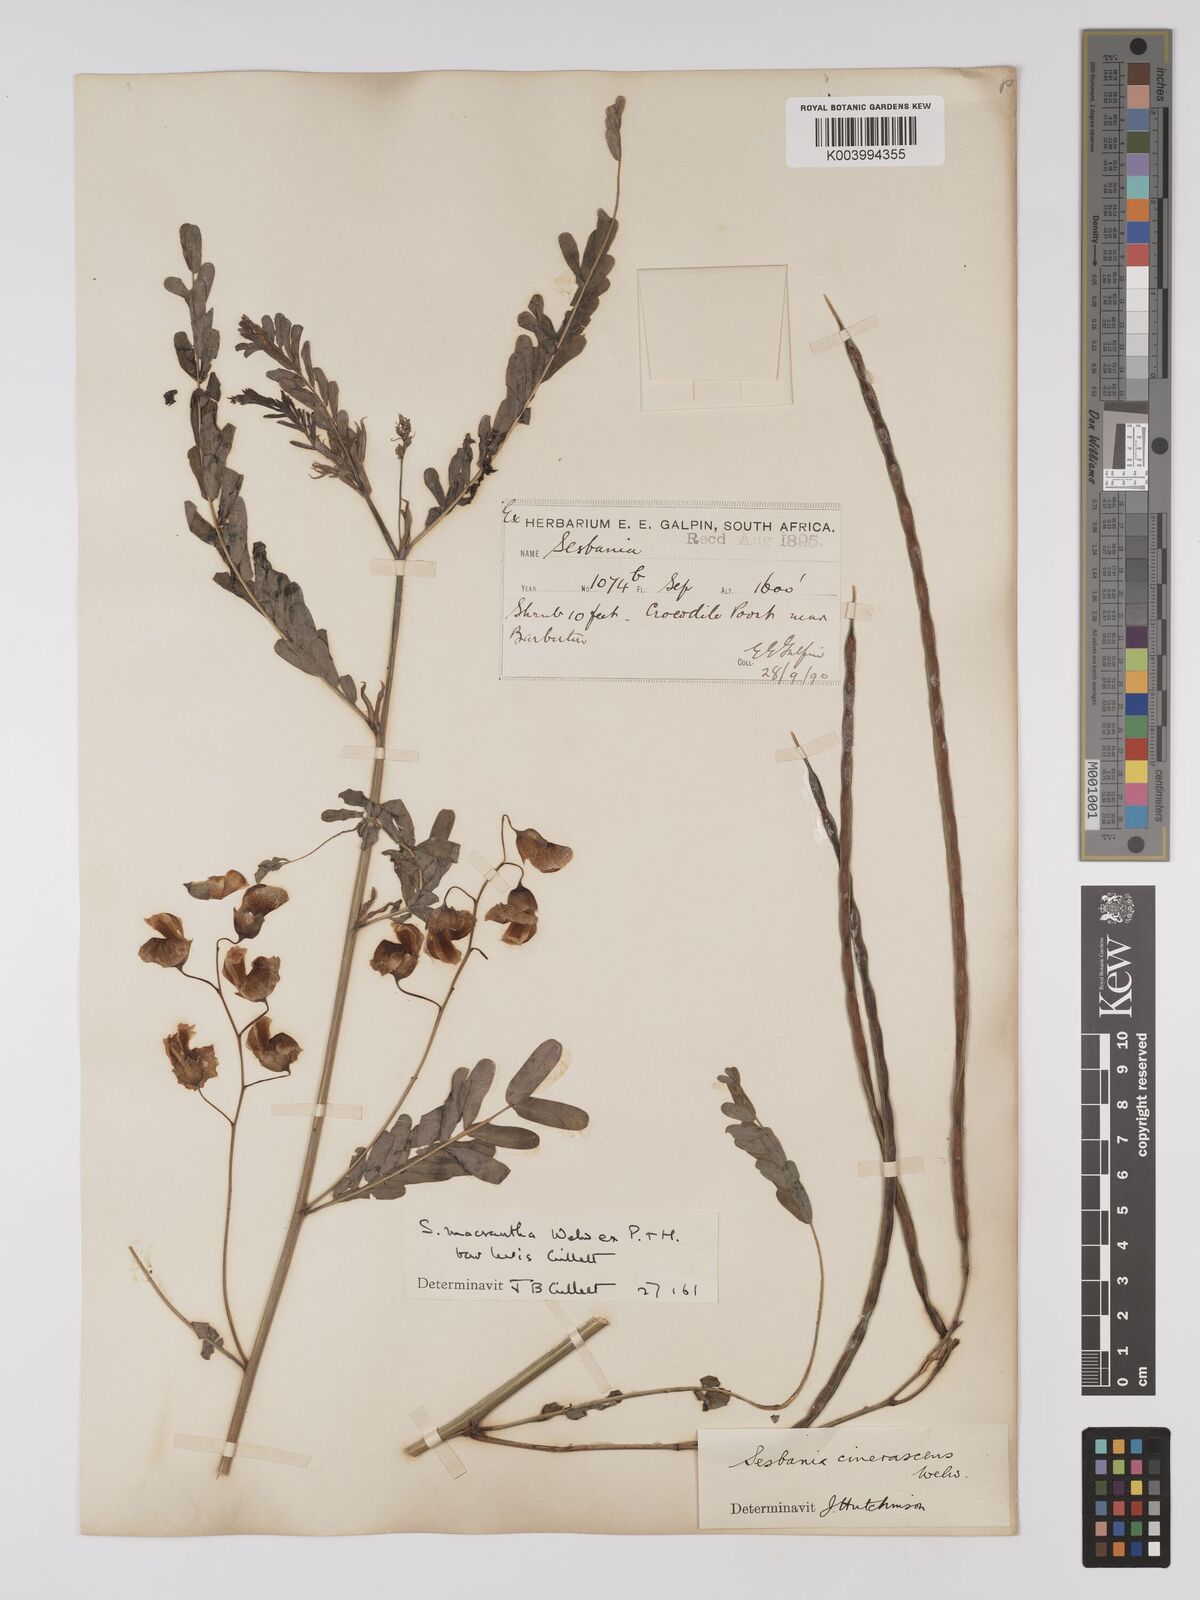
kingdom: Plantae
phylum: Tracheophyta
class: Magnoliopsida
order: Fabales
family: Fabaceae
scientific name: Fabaceae
